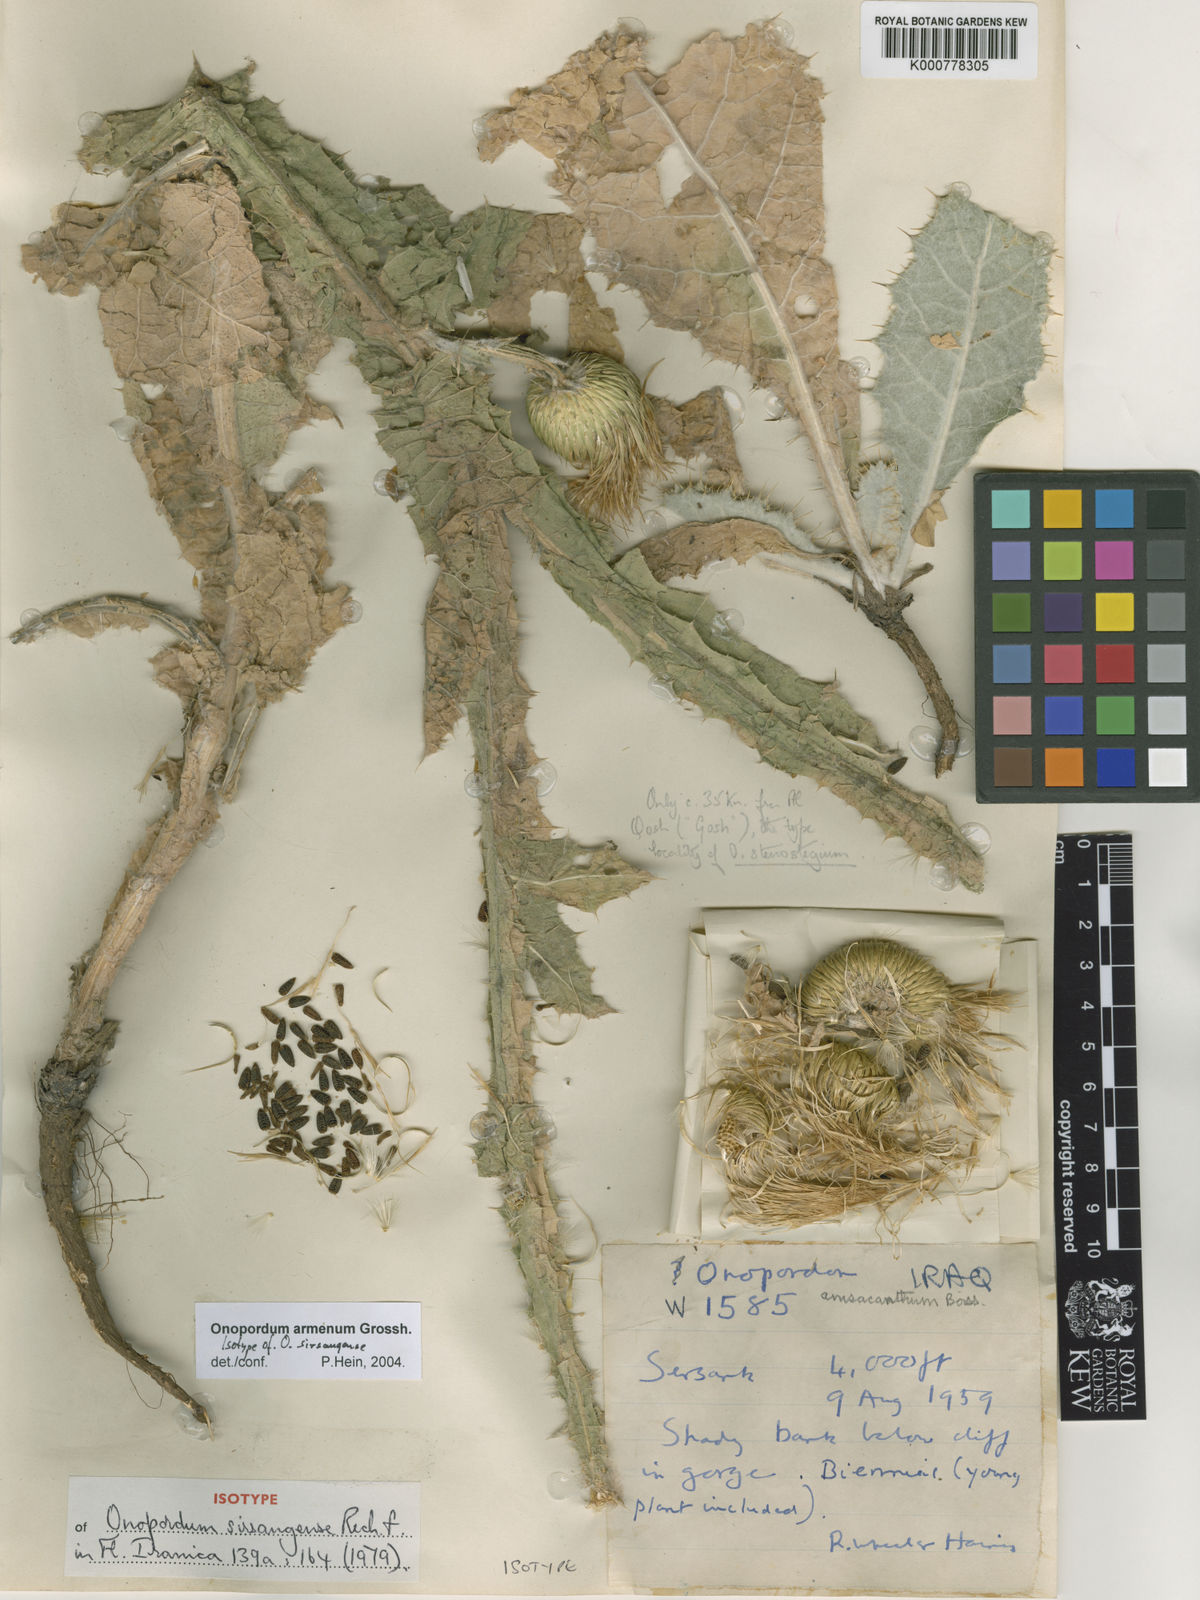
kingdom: Plantae
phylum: Tracheophyta
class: Magnoliopsida
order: Asterales
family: Asteraceae
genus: Onopordum
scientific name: Onopordum armenum
